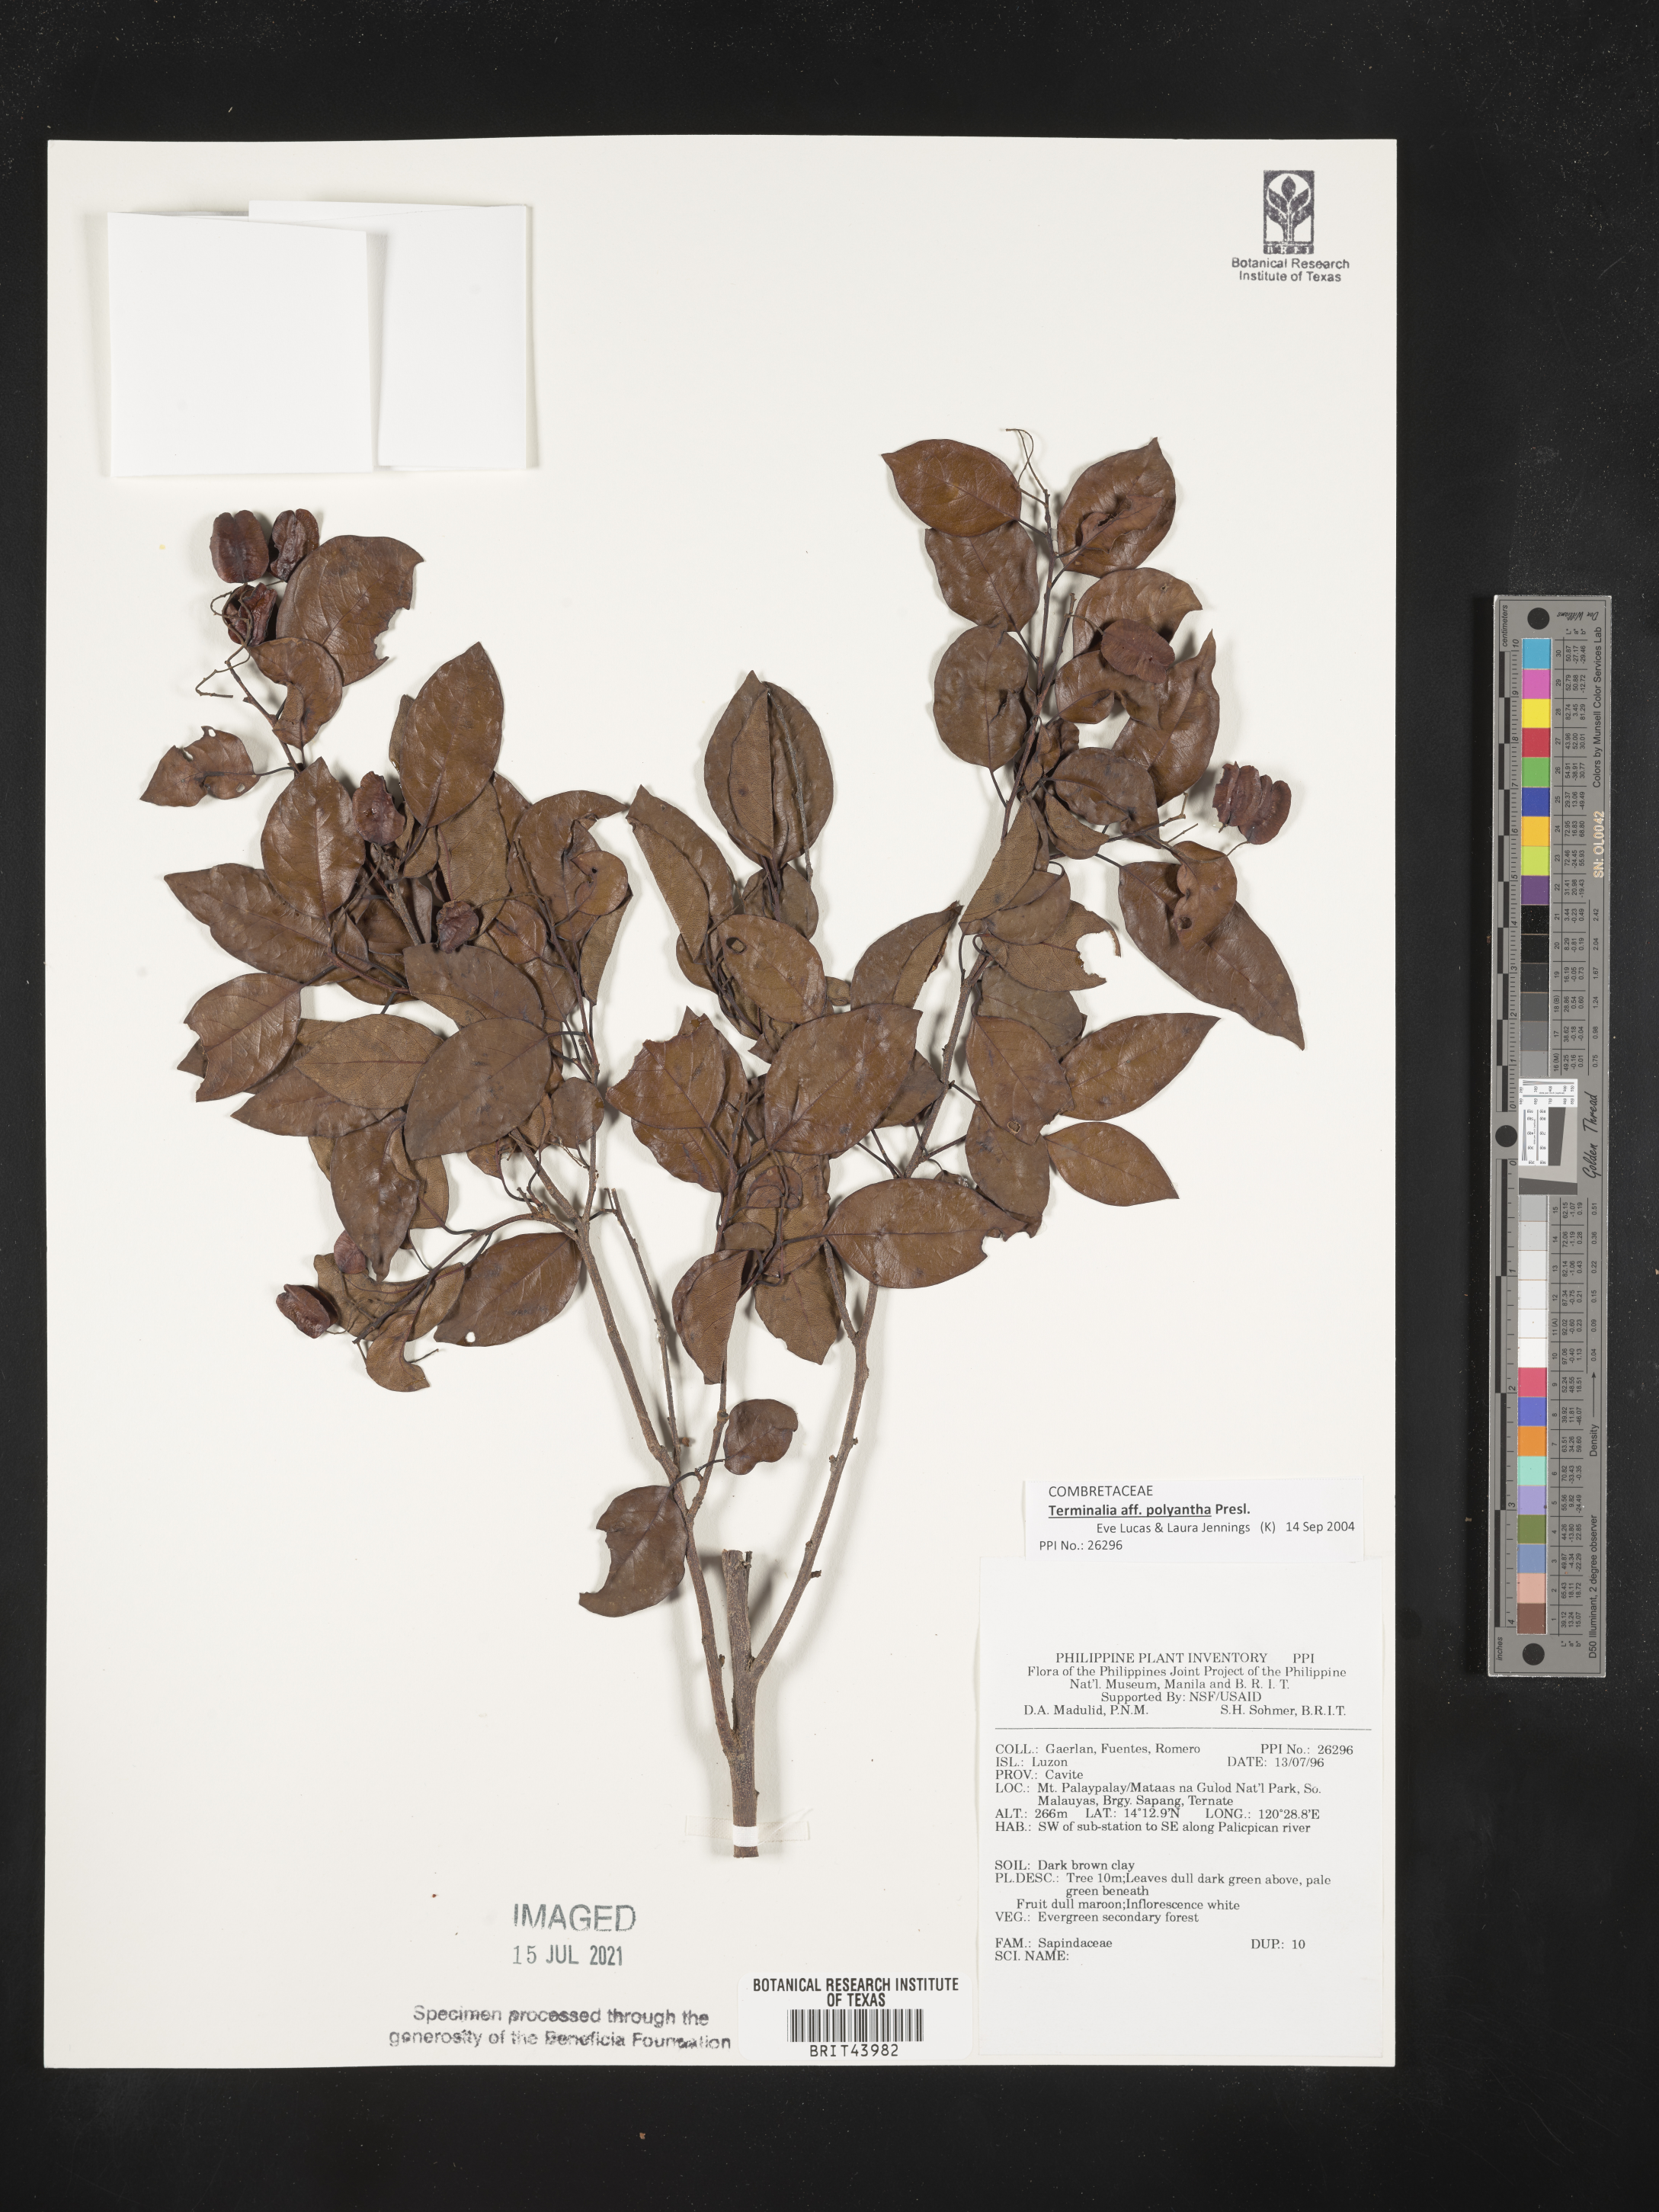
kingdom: Plantae
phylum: Tracheophyta
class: Magnoliopsida
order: Sapindales
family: Sapindaceae
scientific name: Sapindaceae
